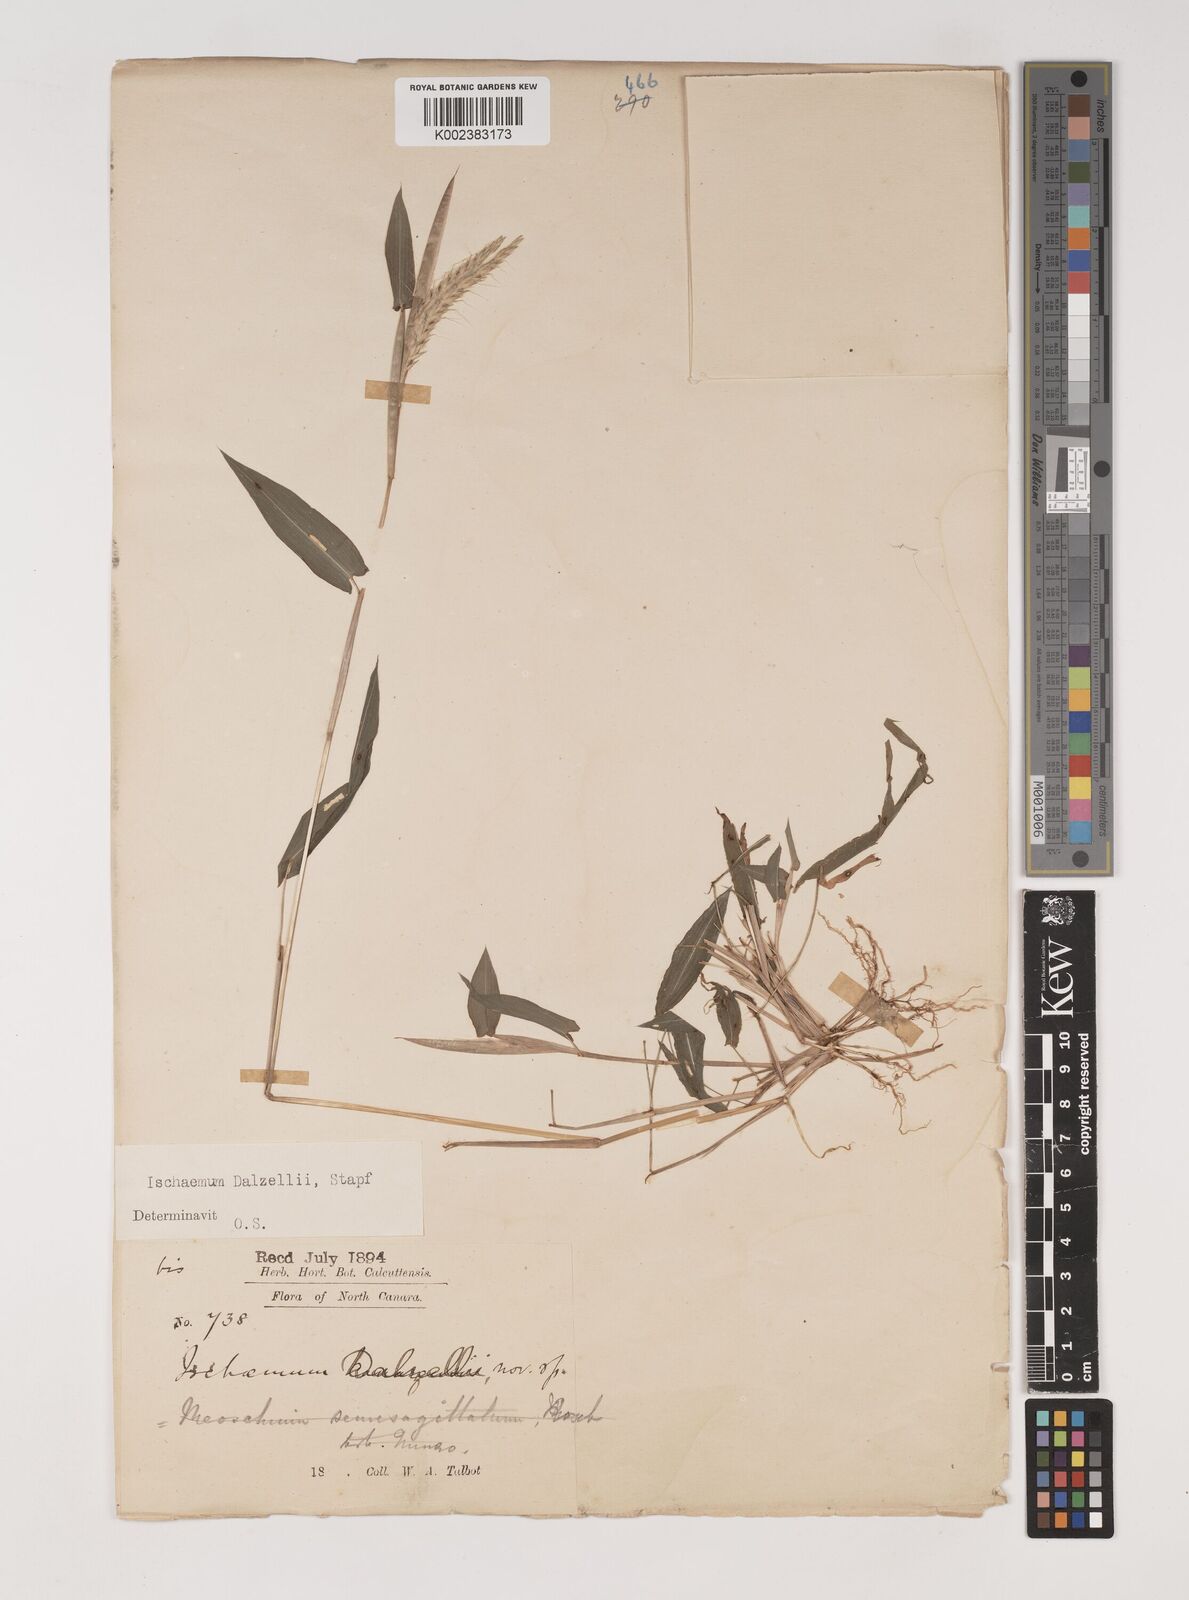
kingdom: Plantae
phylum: Tracheophyta
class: Liliopsida
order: Poales
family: Poaceae
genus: Ischaemum
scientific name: Ischaemum dalzellii
